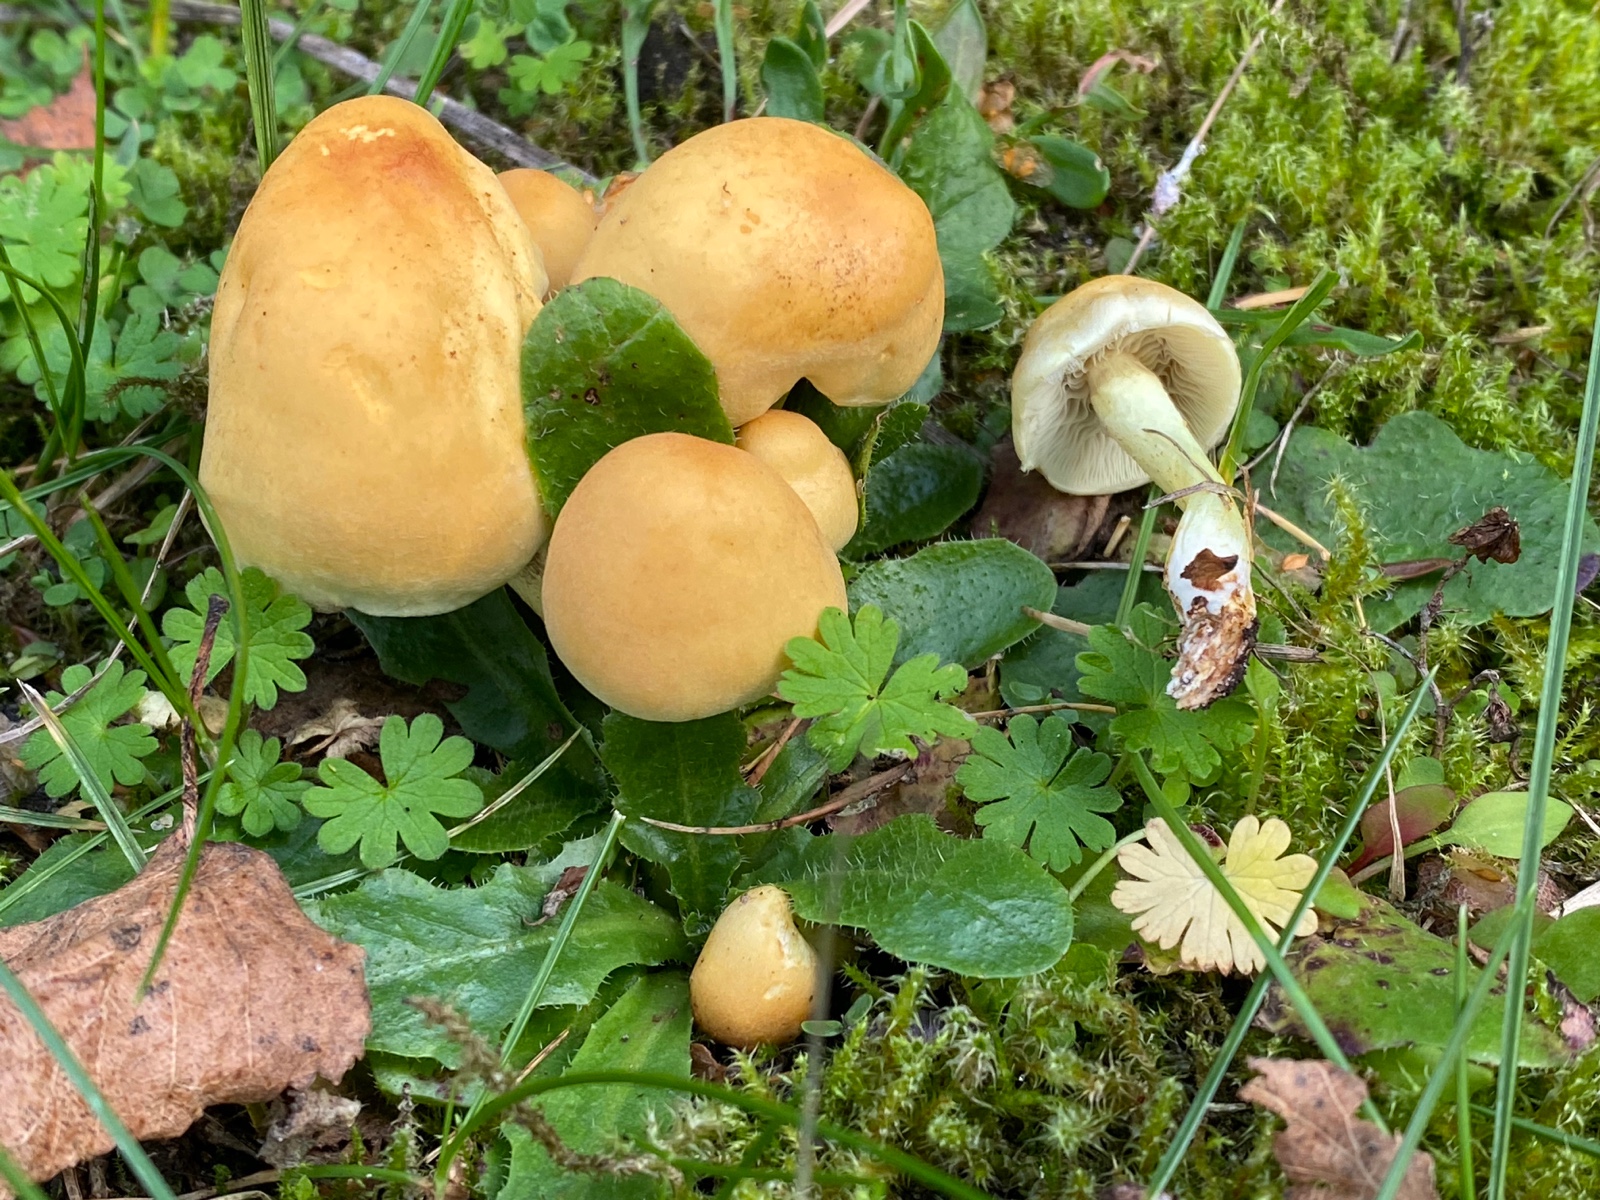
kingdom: Fungi
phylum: Basidiomycota
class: Agaricomycetes
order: Agaricales
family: Strophariaceae
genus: Hypholoma
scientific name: Hypholoma fasciculare
